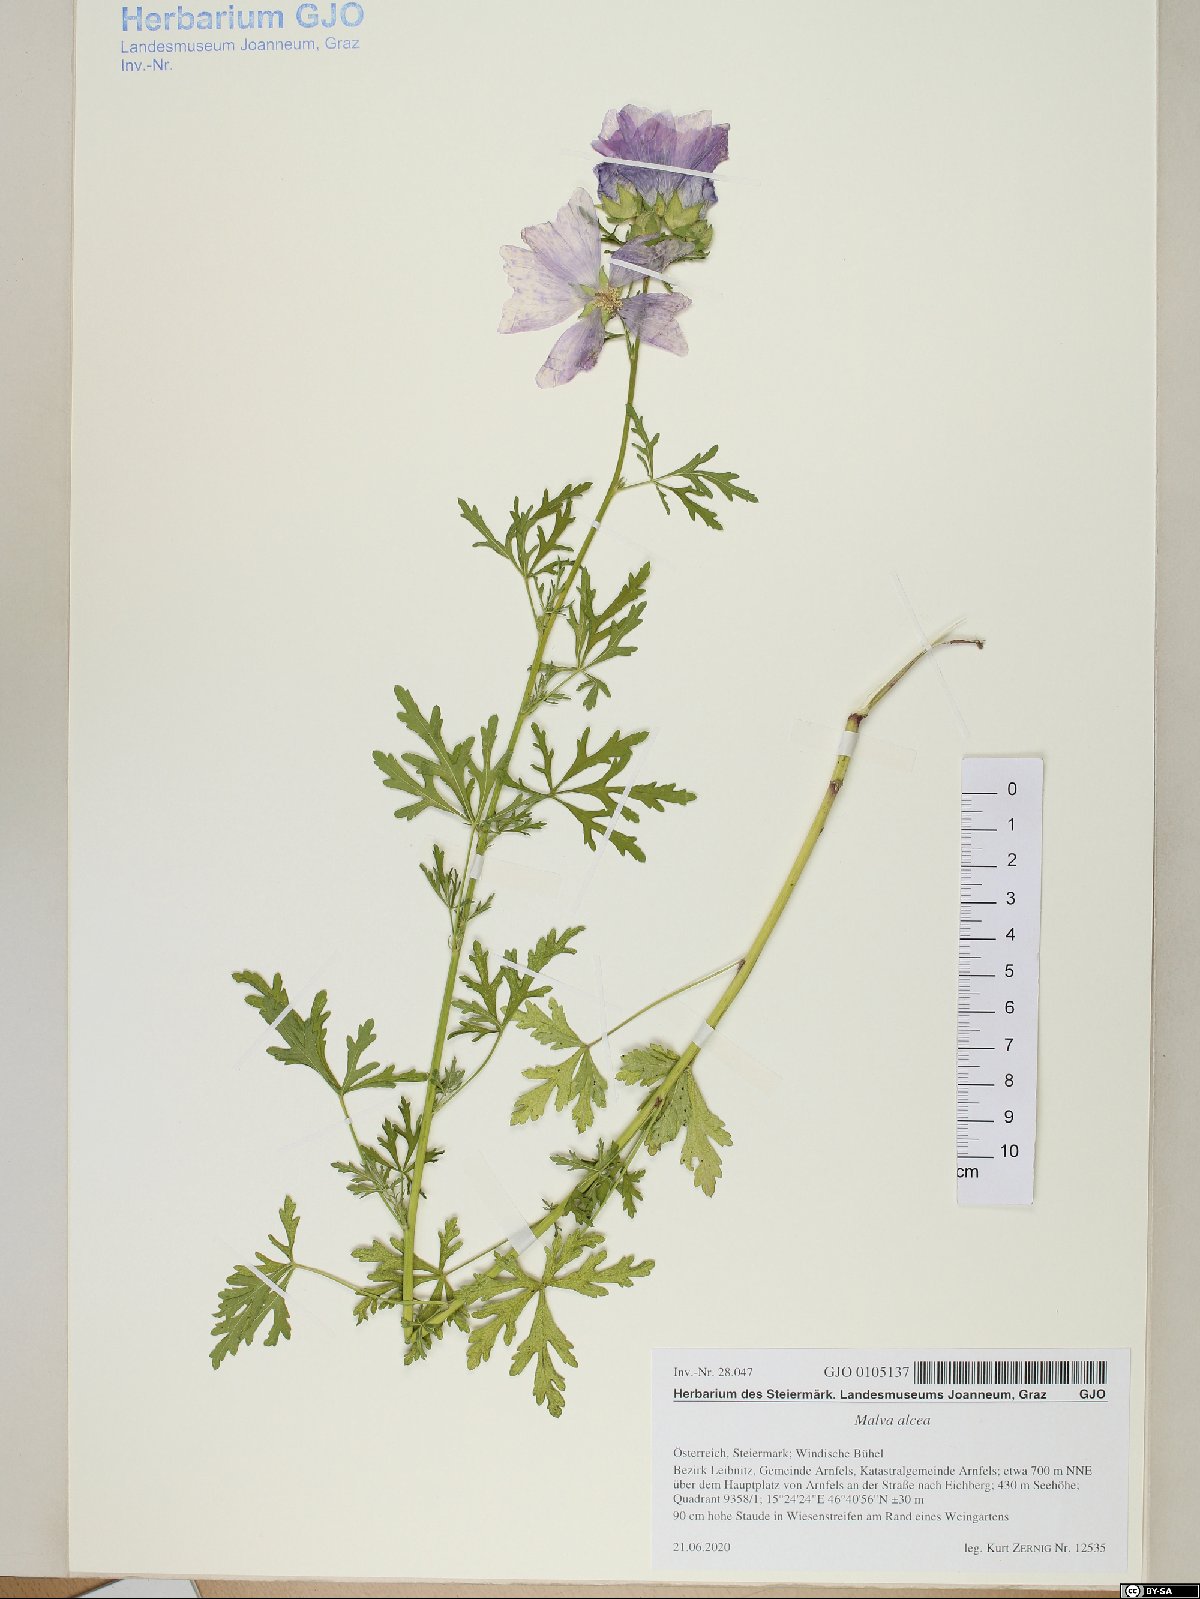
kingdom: Plantae
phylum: Tracheophyta
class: Magnoliopsida
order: Malvales
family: Malvaceae
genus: Malva
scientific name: Malva alcea
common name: Greater musk-mallow
